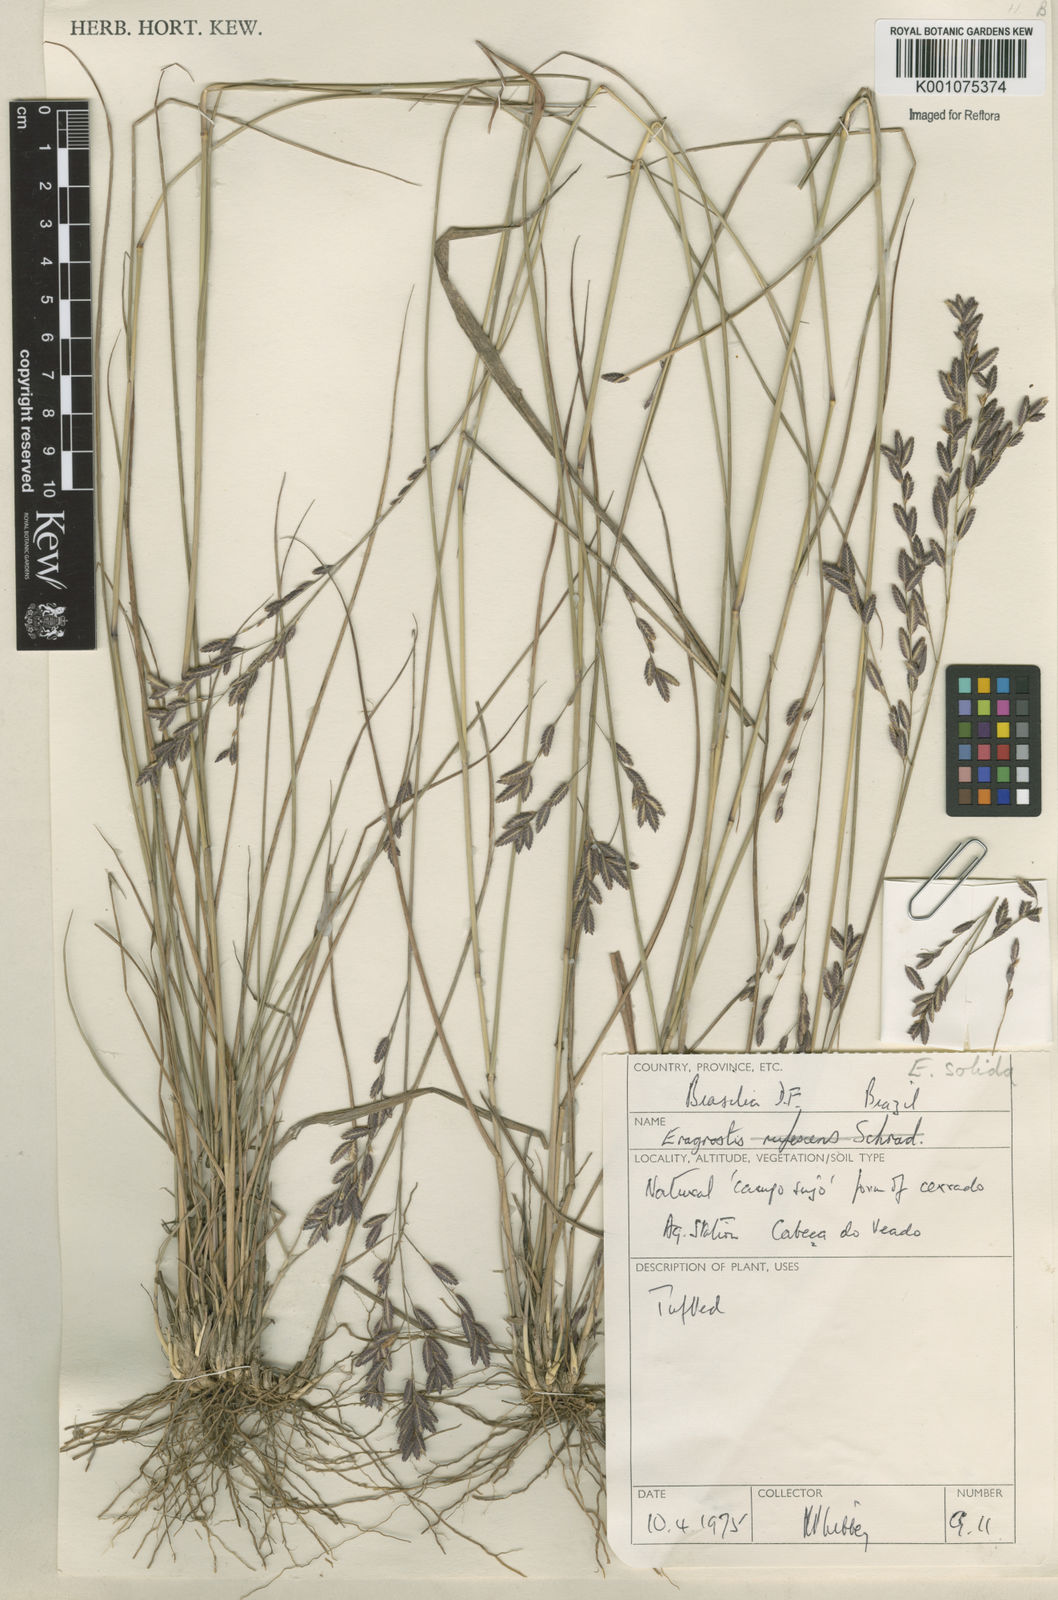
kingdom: Plantae
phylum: Tracheophyta
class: Liliopsida
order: Poales
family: Poaceae
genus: Eragrostis
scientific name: Eragrostis solida
